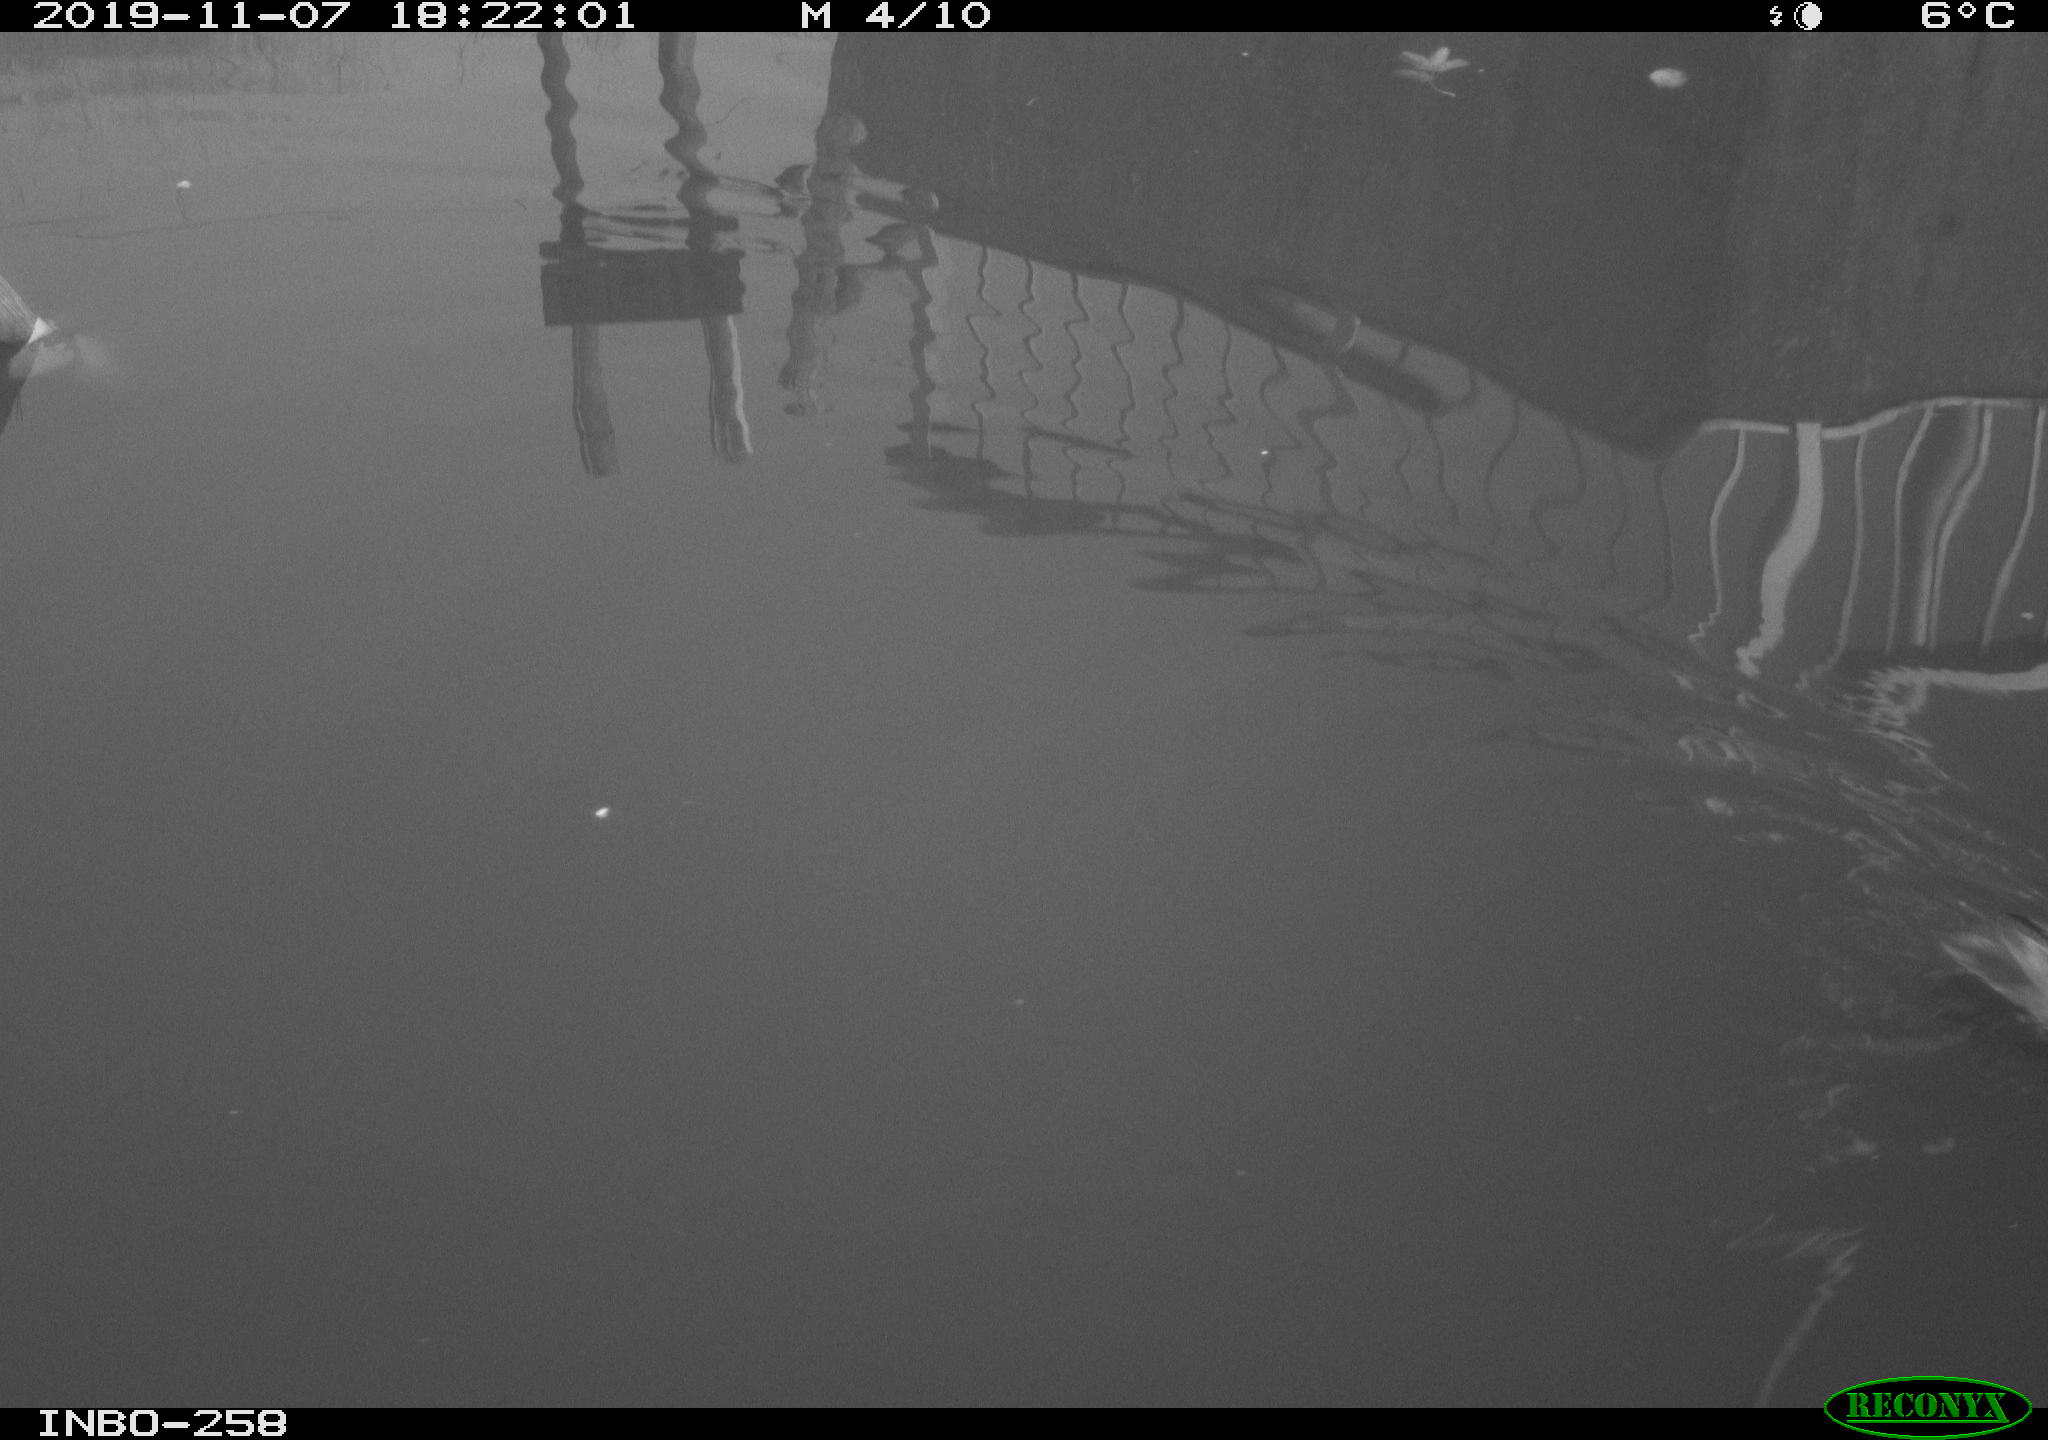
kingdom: Animalia
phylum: Chordata
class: Aves
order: Gruiformes
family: Rallidae
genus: Gallinula
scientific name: Gallinula chloropus
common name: Common moorhen
